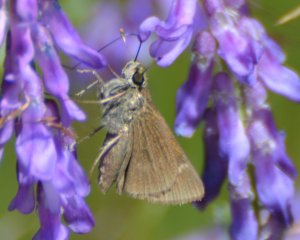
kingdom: Animalia
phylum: Arthropoda
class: Insecta
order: Lepidoptera
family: Hesperiidae
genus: Polites
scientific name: Polites themistocles
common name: Tawny-edged Skipper
